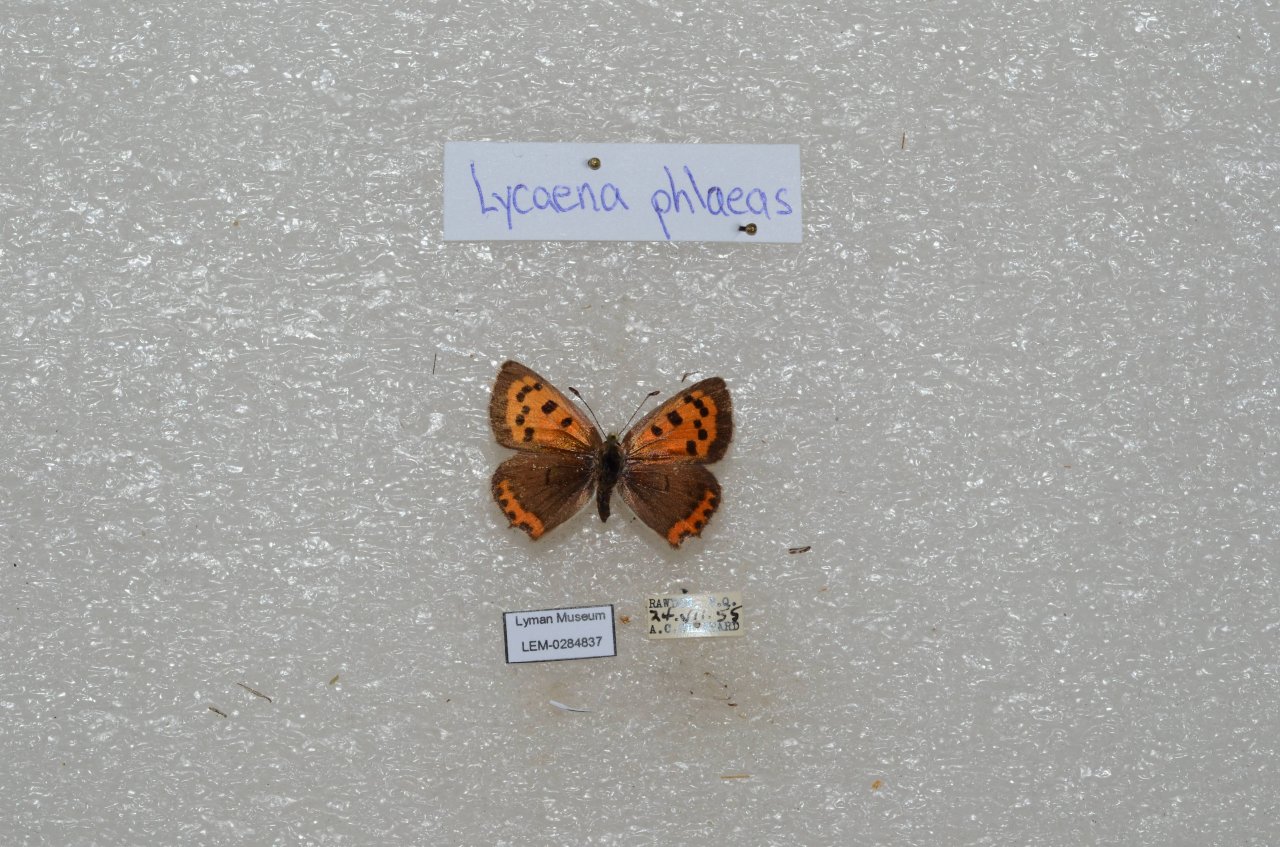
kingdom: Animalia
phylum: Arthropoda
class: Insecta
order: Lepidoptera
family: Lycaenidae
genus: Lycaena
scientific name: Lycaena phlaeas
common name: American Copper
